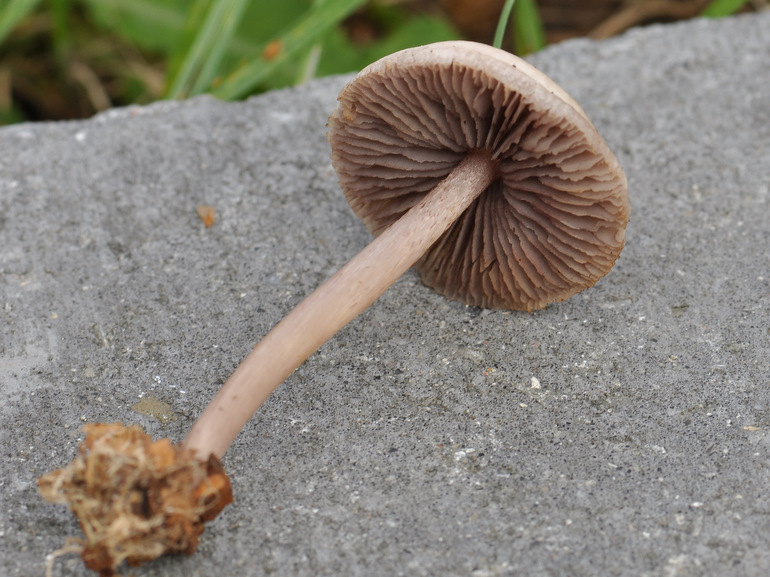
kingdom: Fungi
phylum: Basidiomycota
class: Agaricomycetes
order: Agaricales
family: Mycenaceae
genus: Mycena
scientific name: Mycena pelianthina
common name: mørkbladet huesvamp
